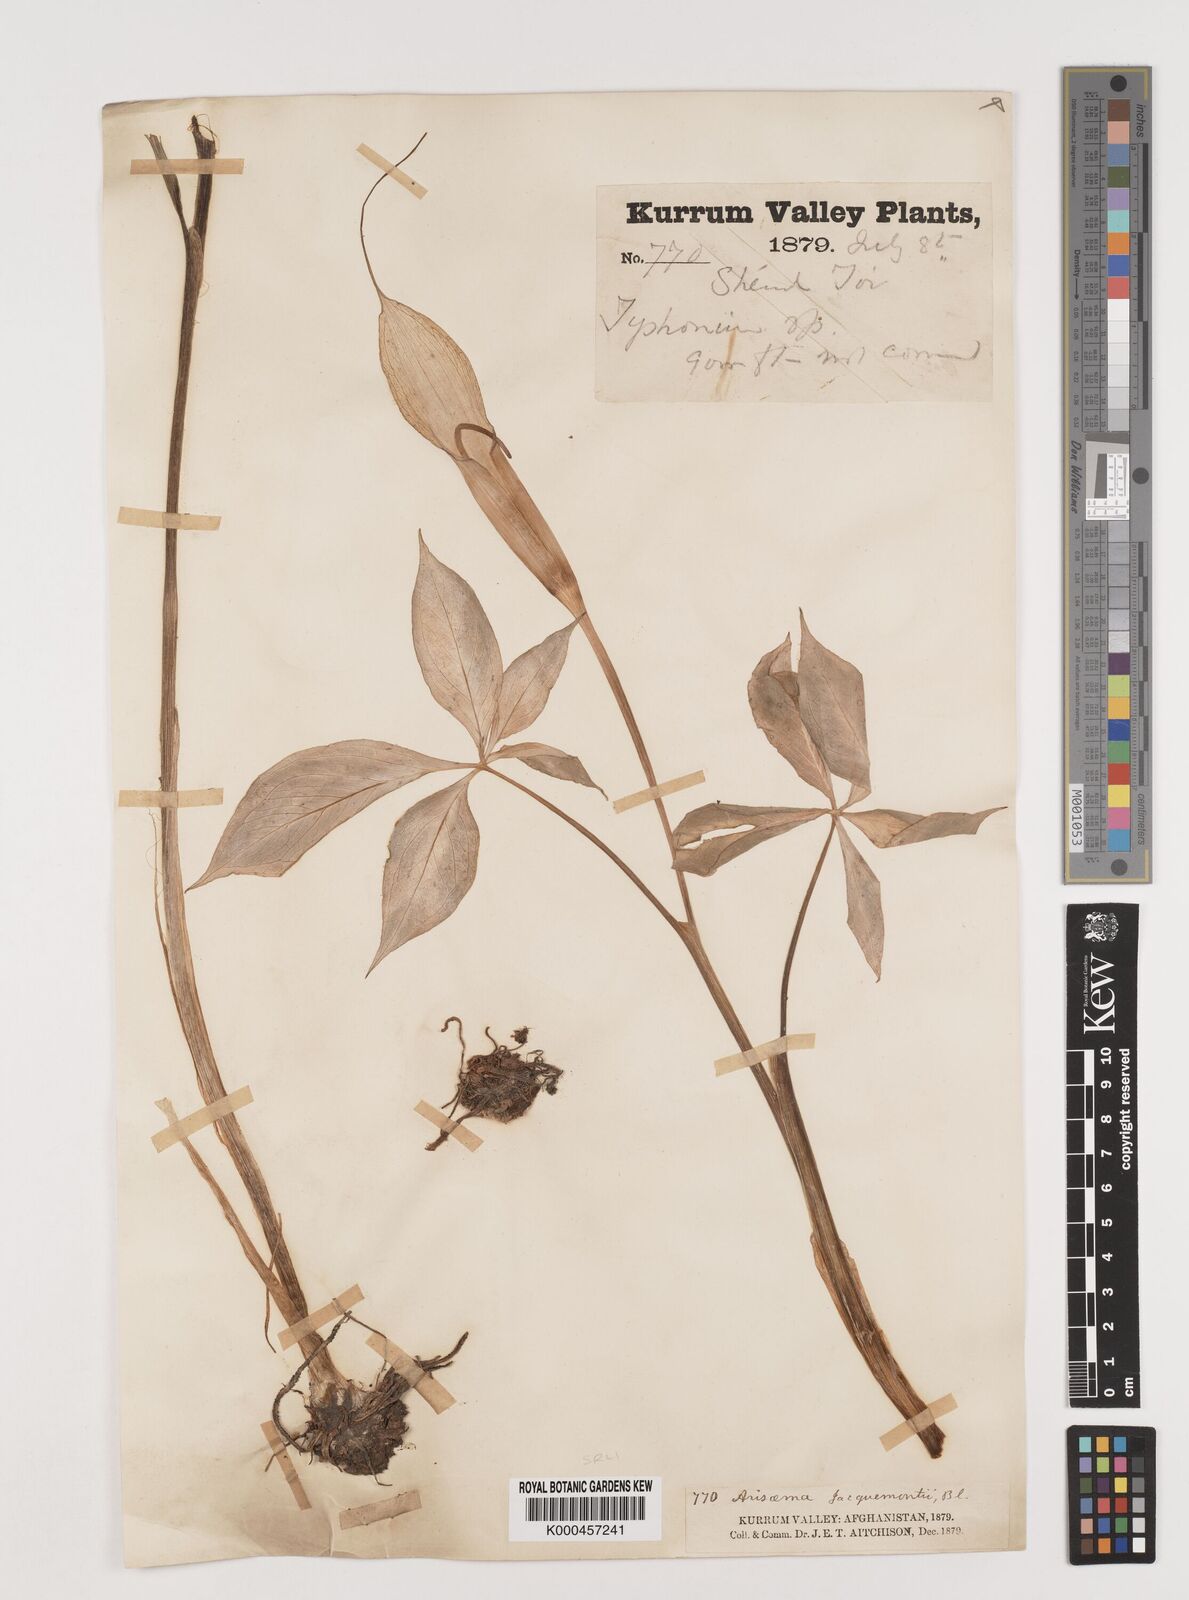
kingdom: Plantae
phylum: Tracheophyta
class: Liliopsida
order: Alismatales
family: Araceae
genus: Arisaema
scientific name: Arisaema jacquemontii
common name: Jacquemont's cobra-lily
